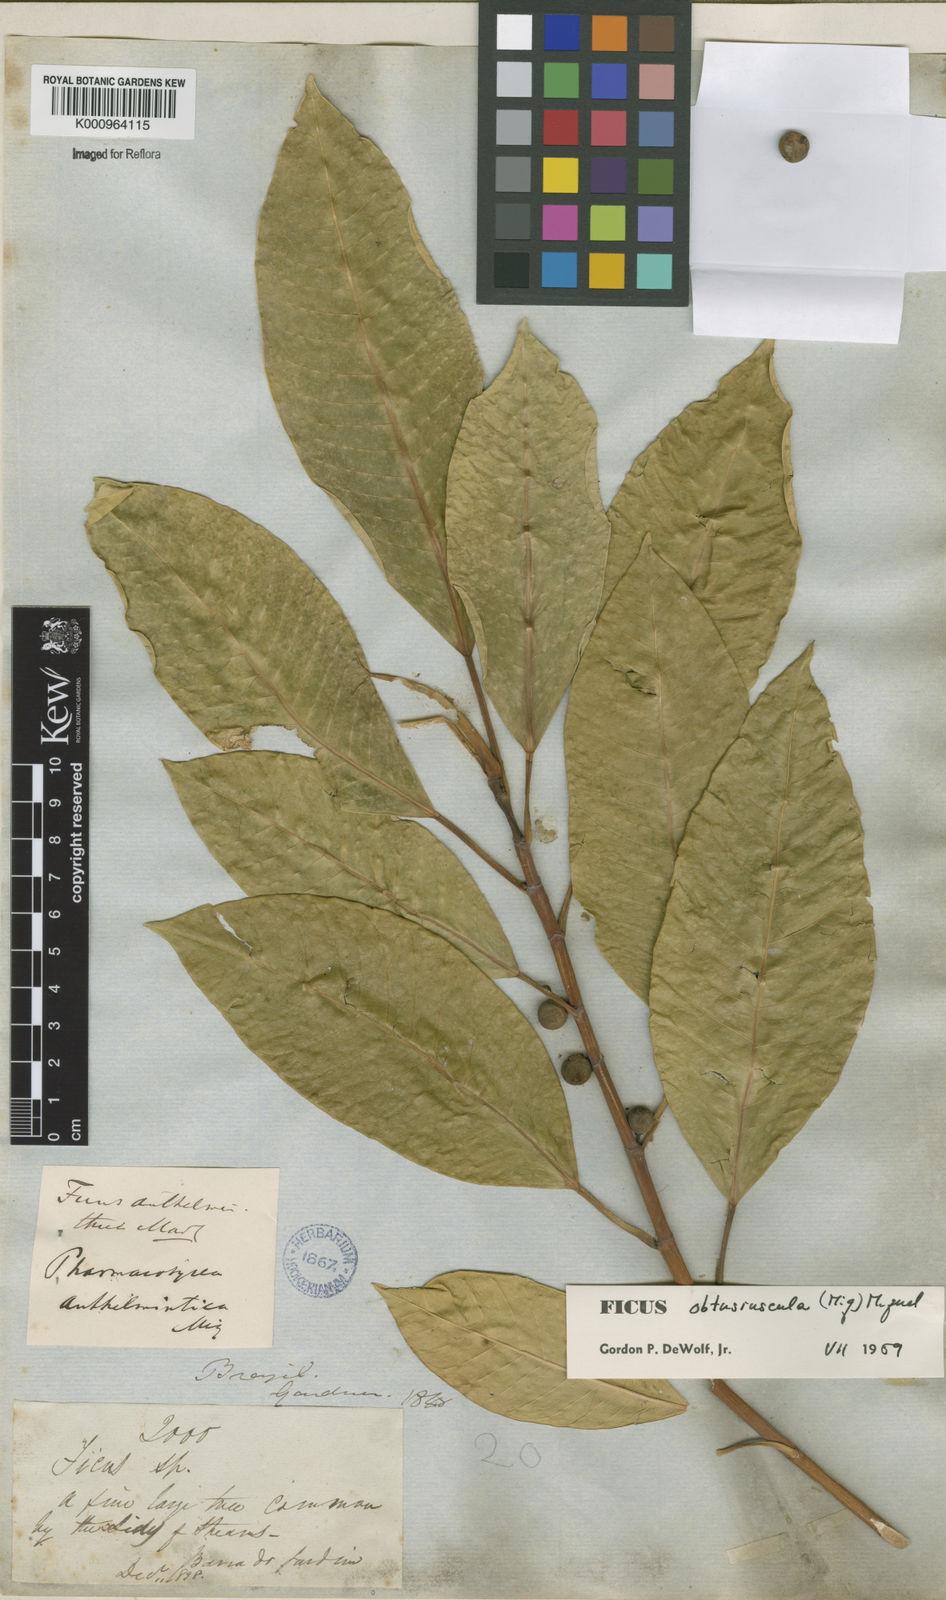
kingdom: Plantae
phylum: Tracheophyta
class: Magnoliopsida
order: Rosales
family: Moraceae
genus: Ficus
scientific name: Ficus obtusiuscula
